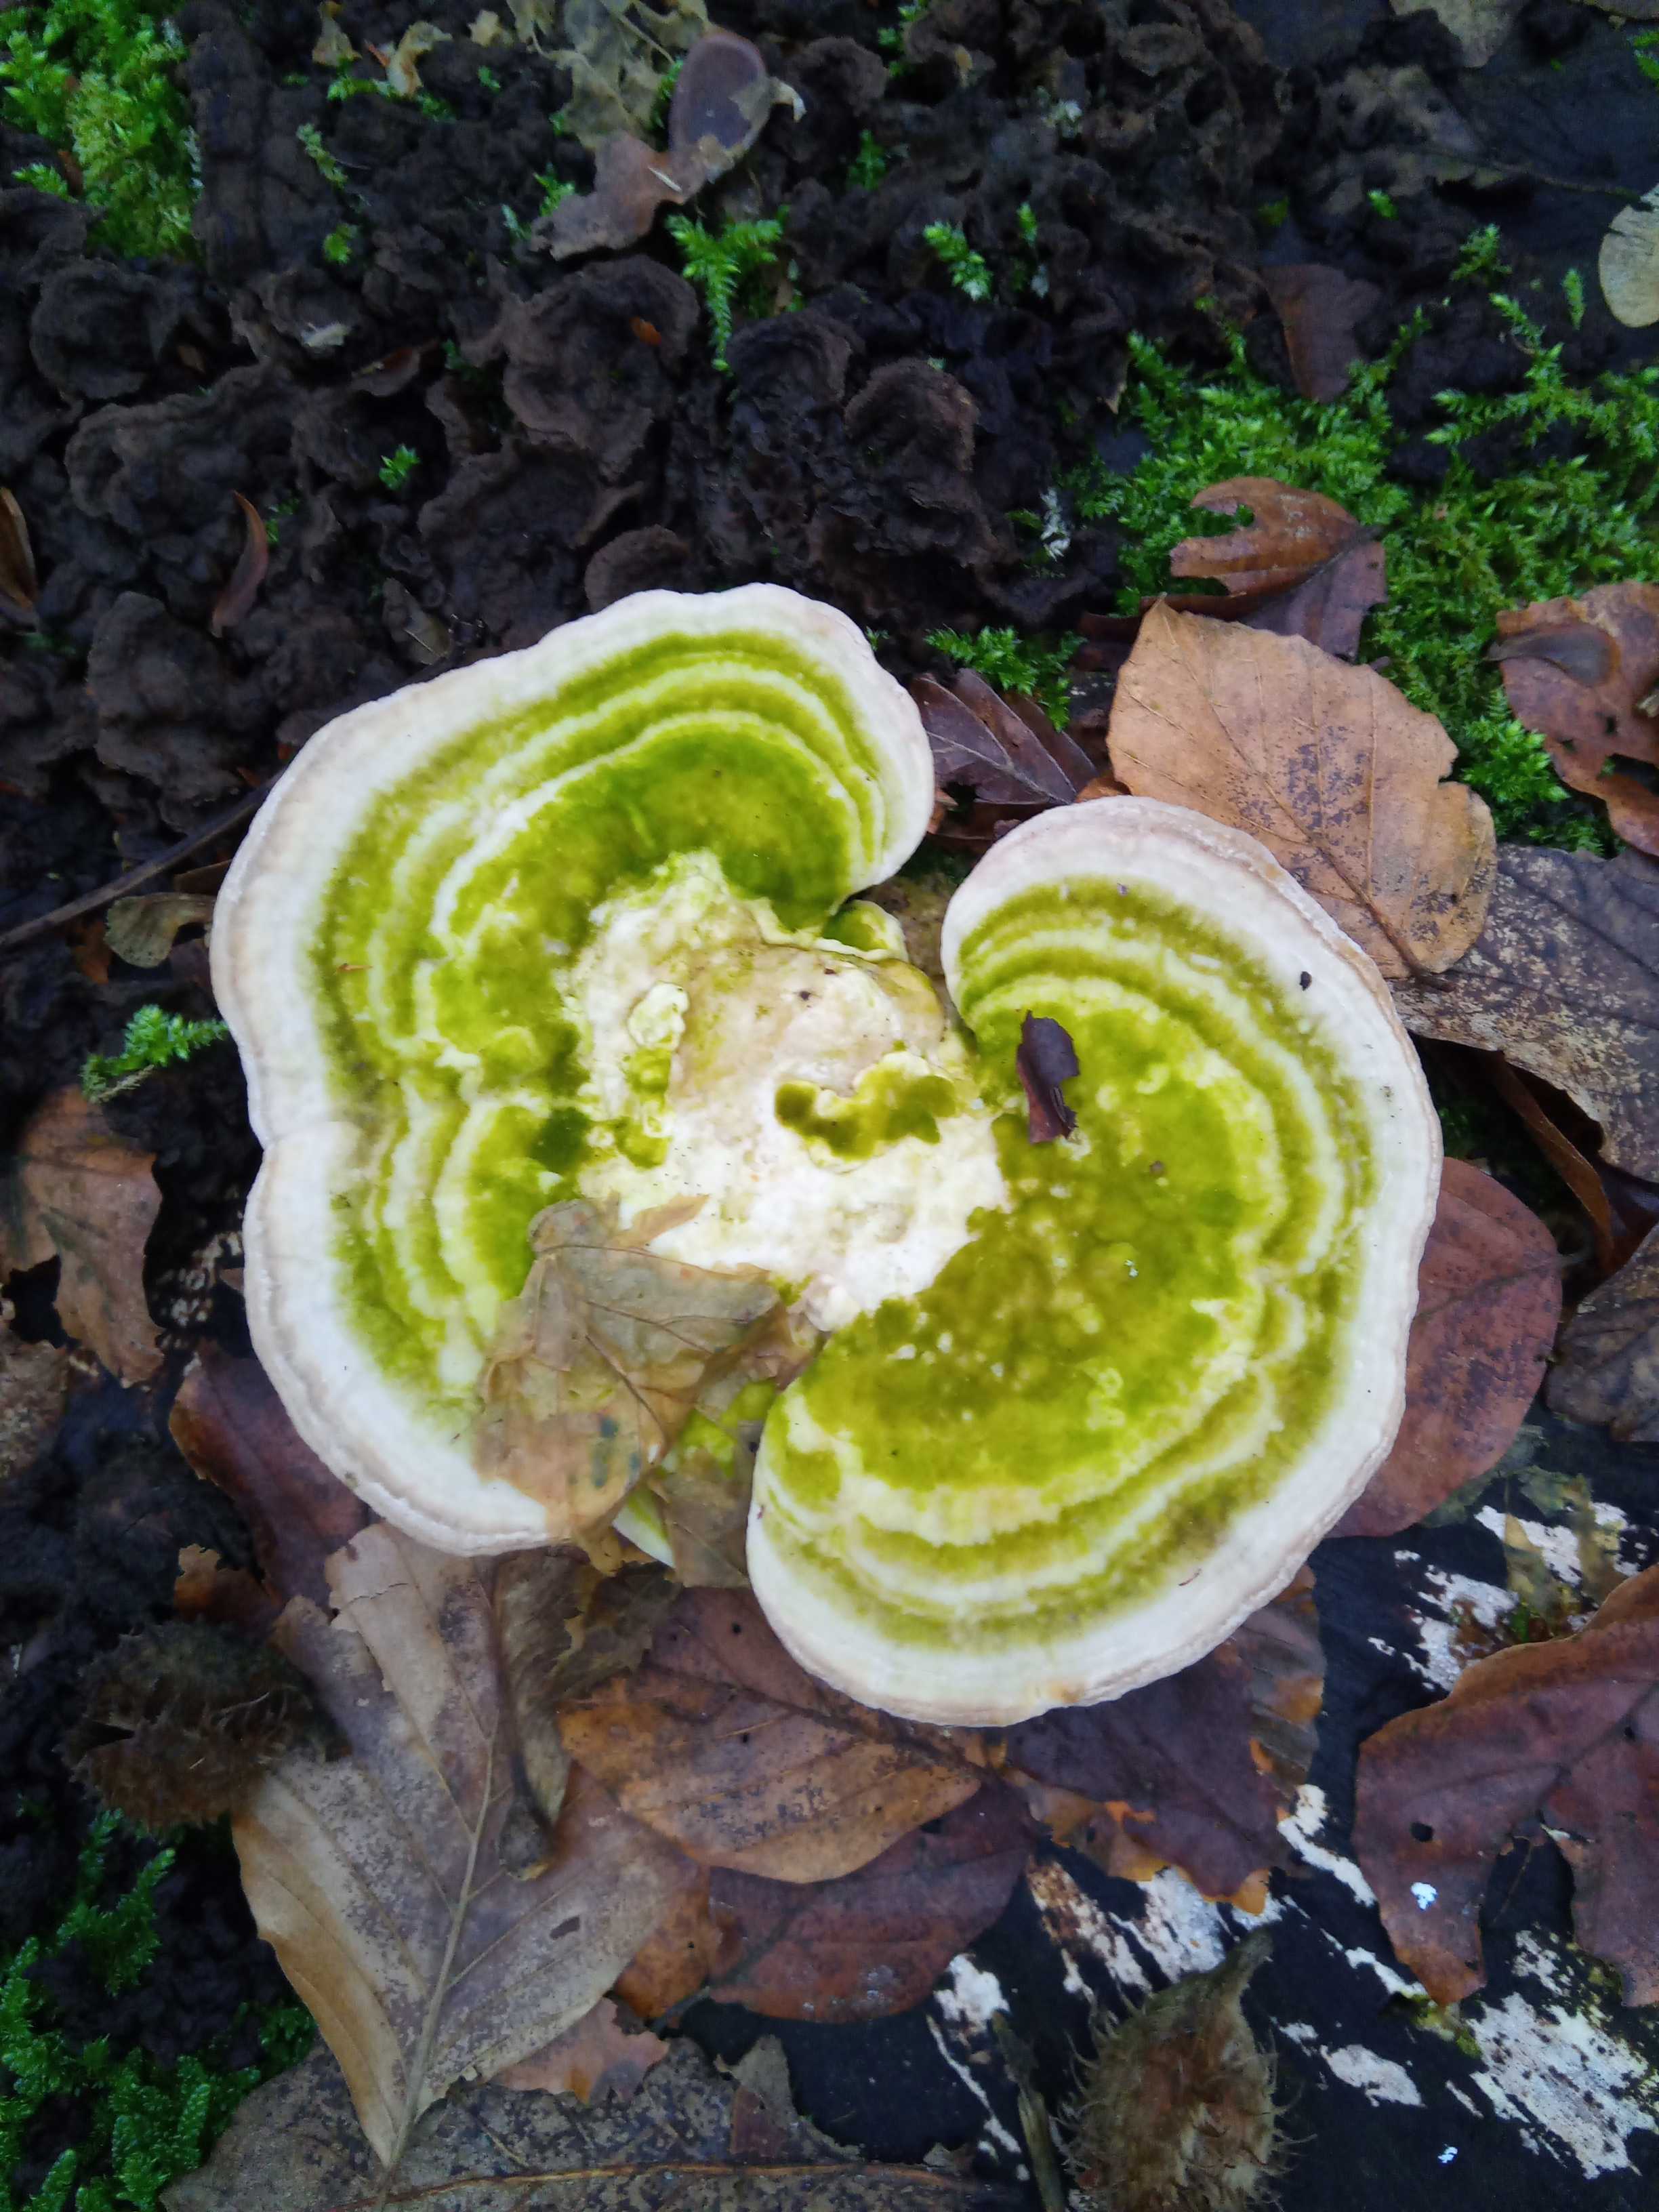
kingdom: Fungi
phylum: Basidiomycota
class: Agaricomycetes
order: Polyporales
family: Polyporaceae
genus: Trametes
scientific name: Trametes
